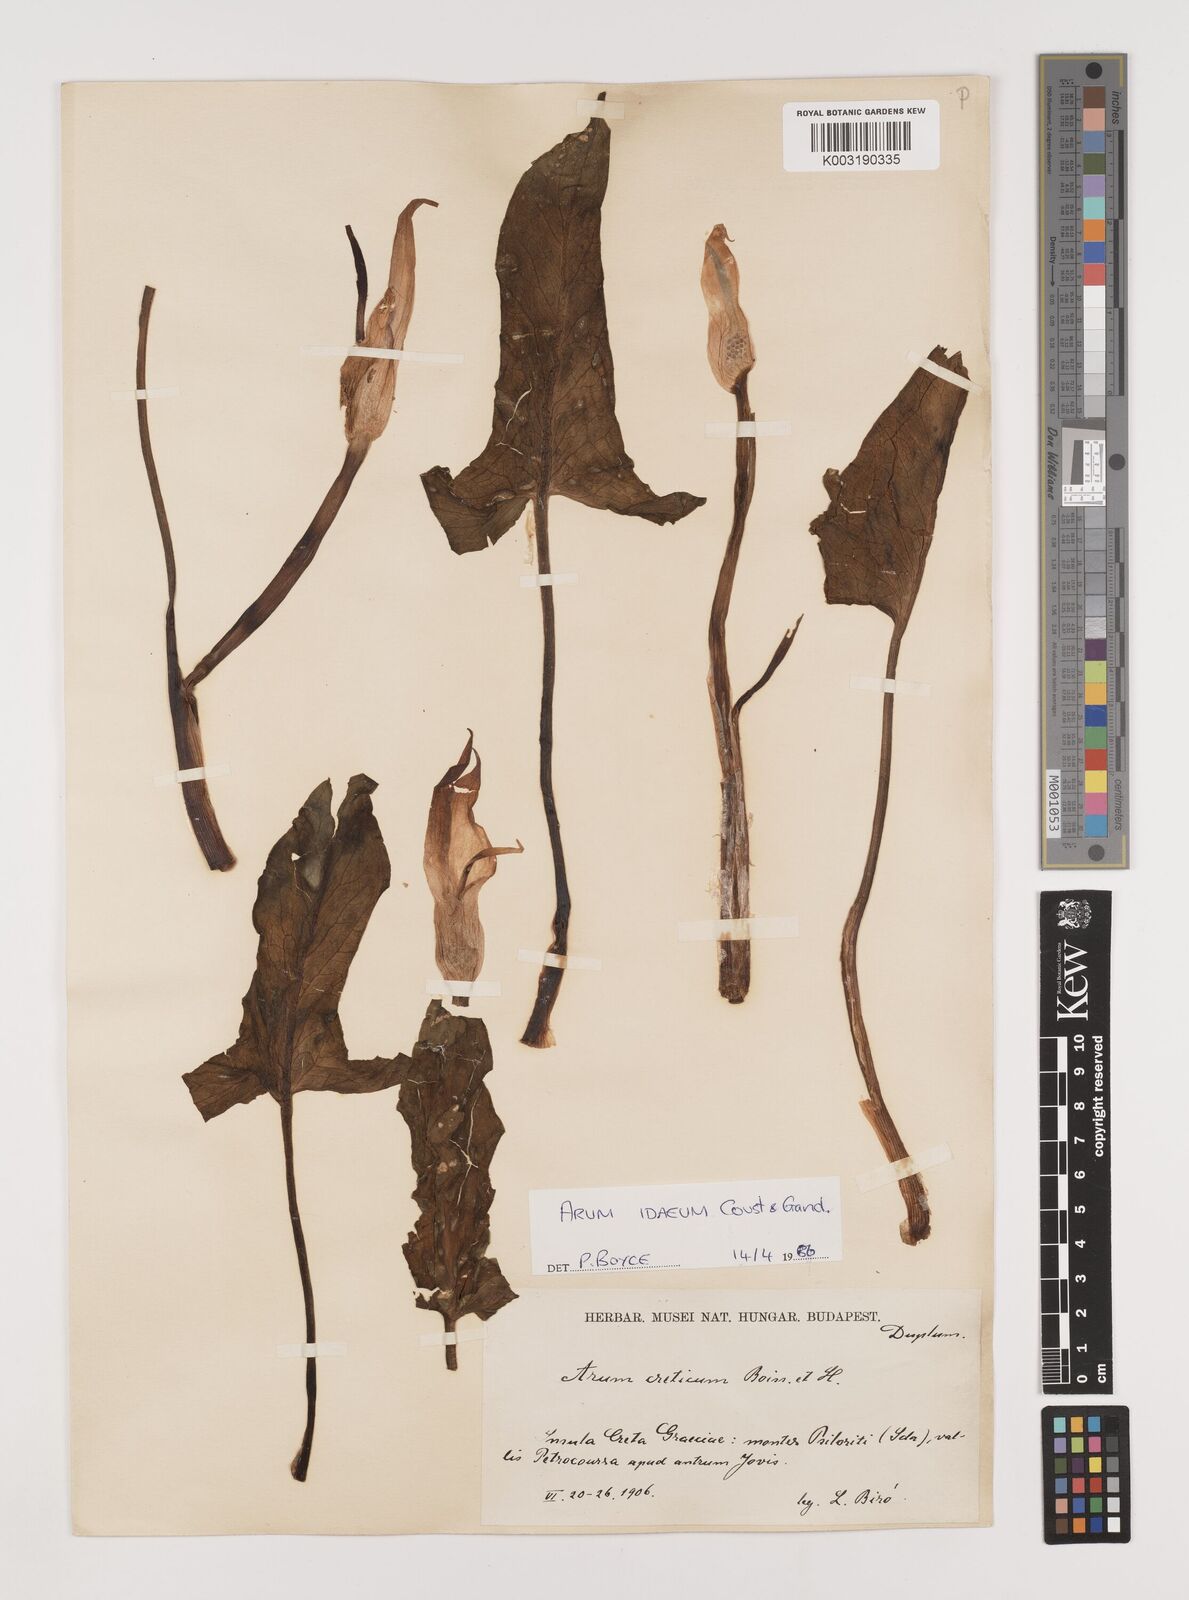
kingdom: Plantae
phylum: Tracheophyta
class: Liliopsida
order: Alismatales
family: Araceae
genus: Arum
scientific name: Arum idaeum
